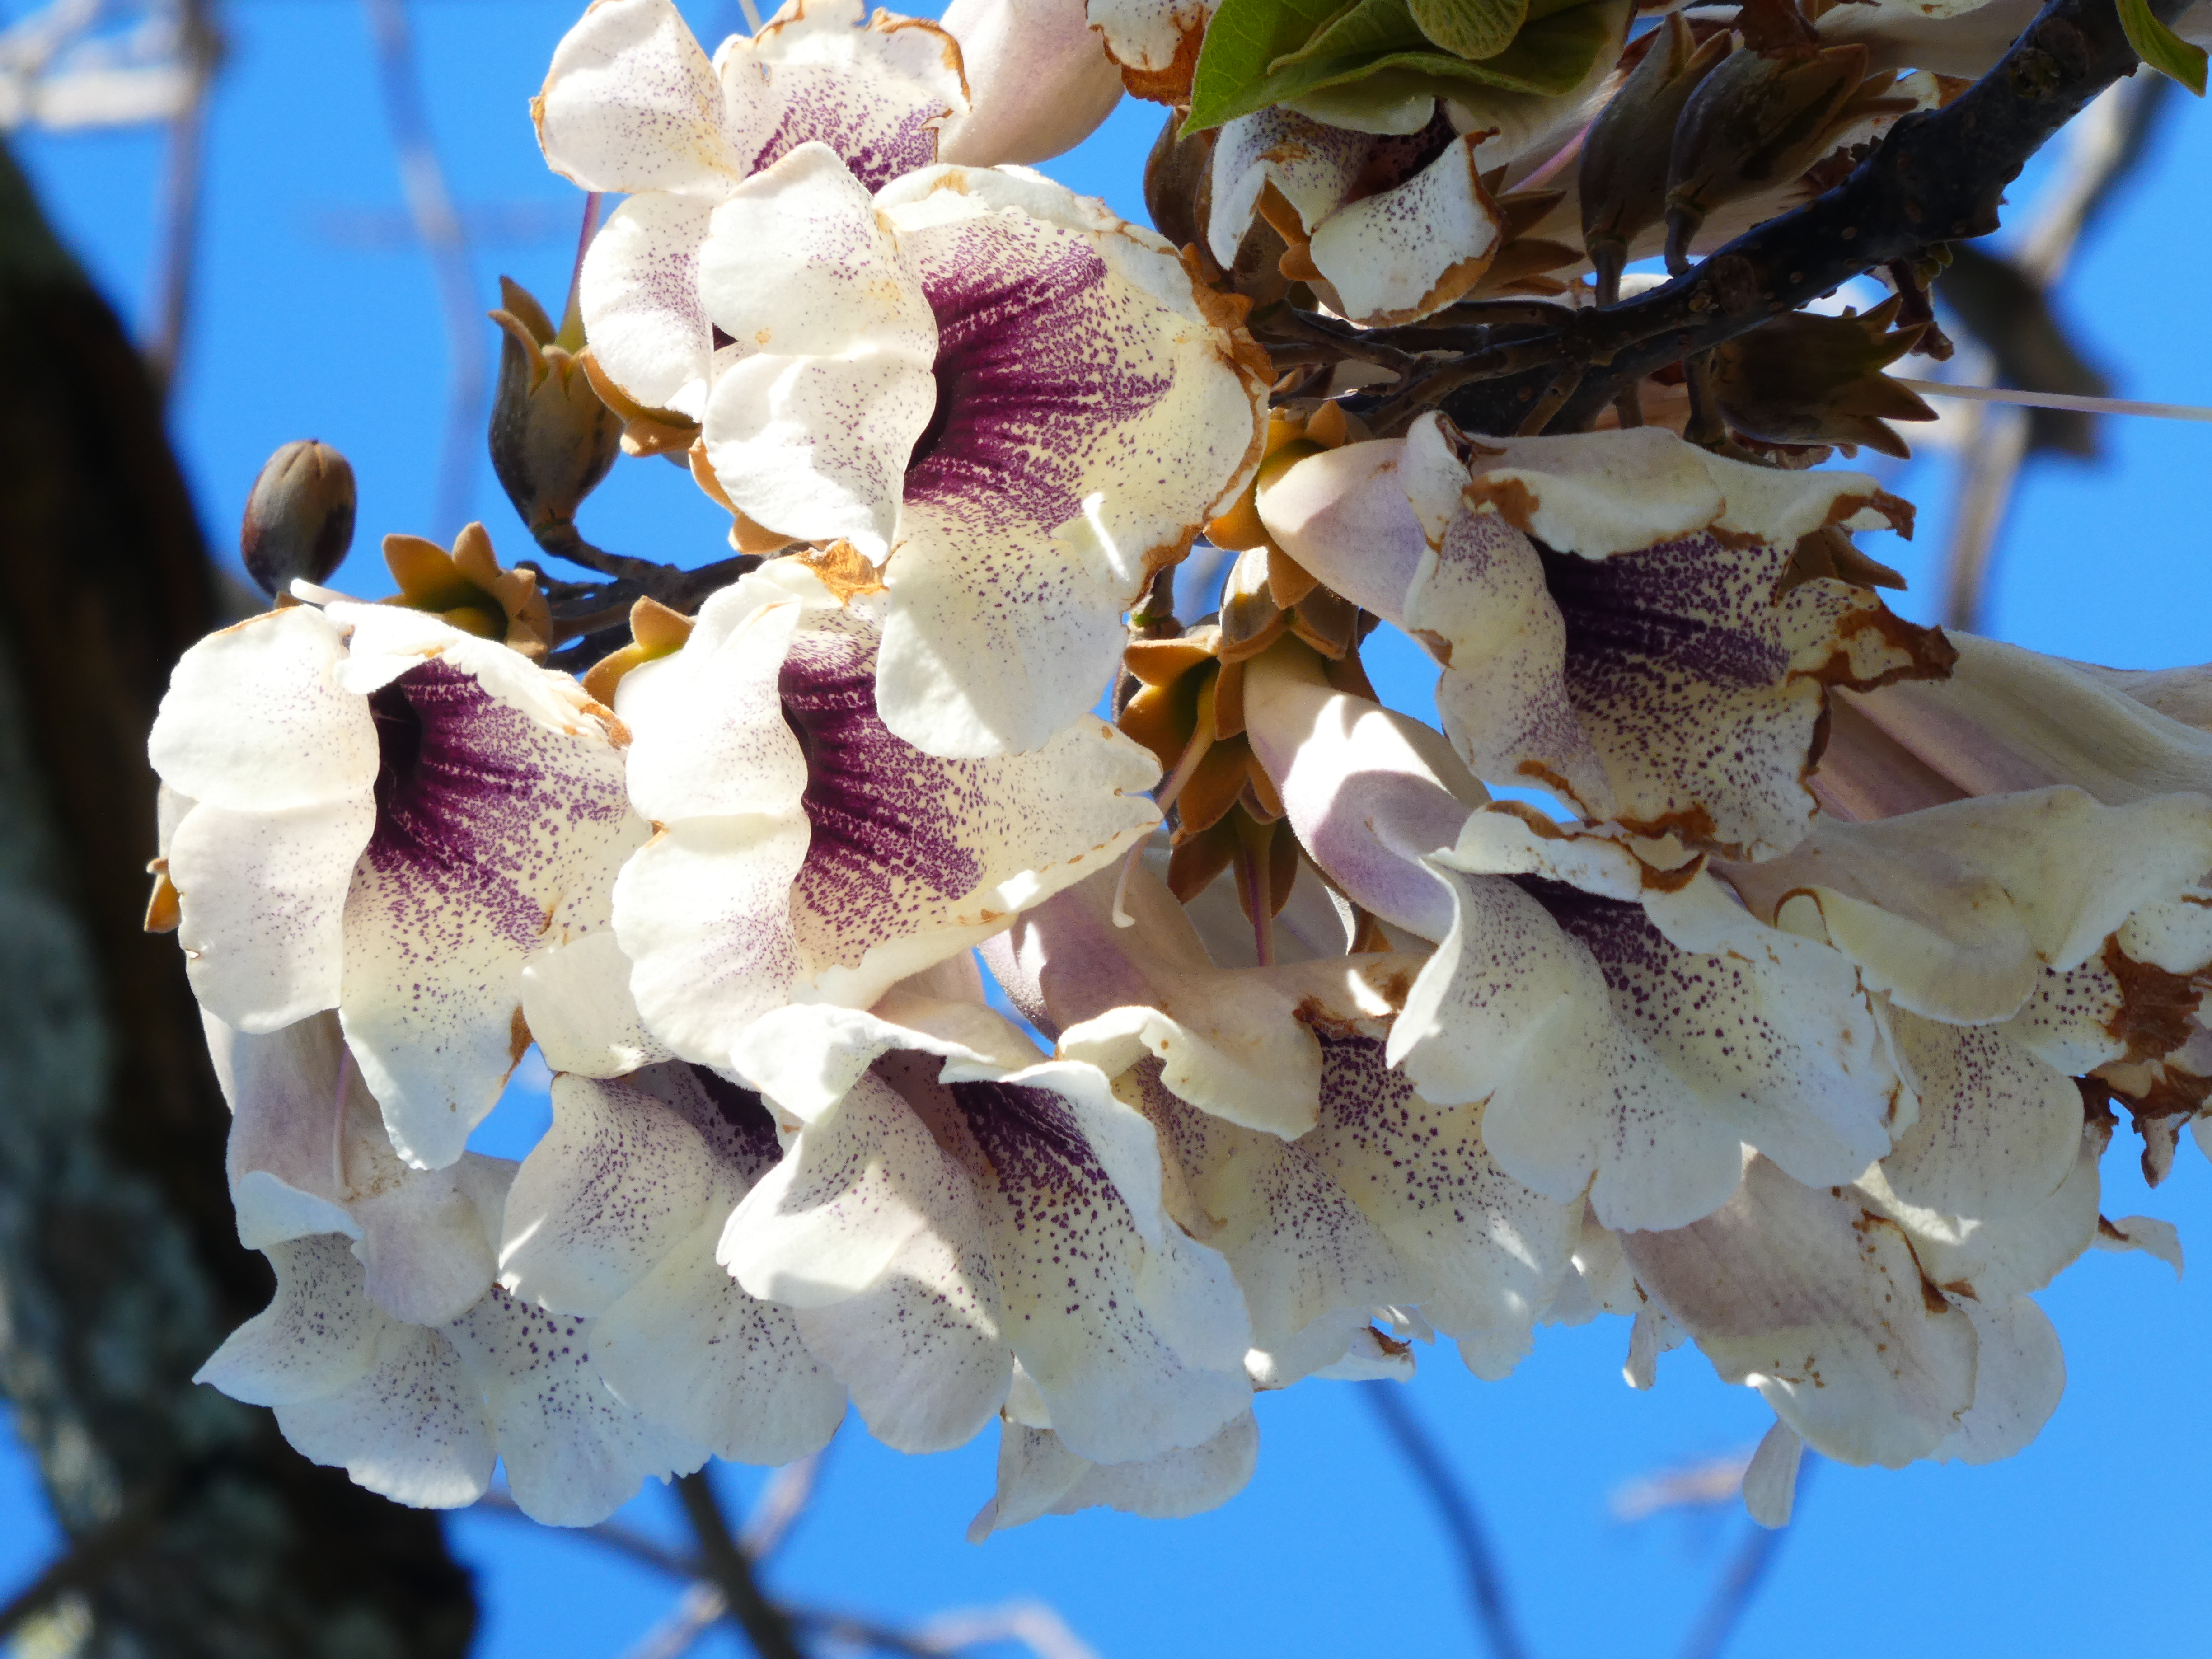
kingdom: Plantae
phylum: Tracheophyta
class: Magnoliopsida
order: Lamiales
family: Paulowniaceae
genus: Paulownia
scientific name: Paulownia fortunei
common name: Dragontree
